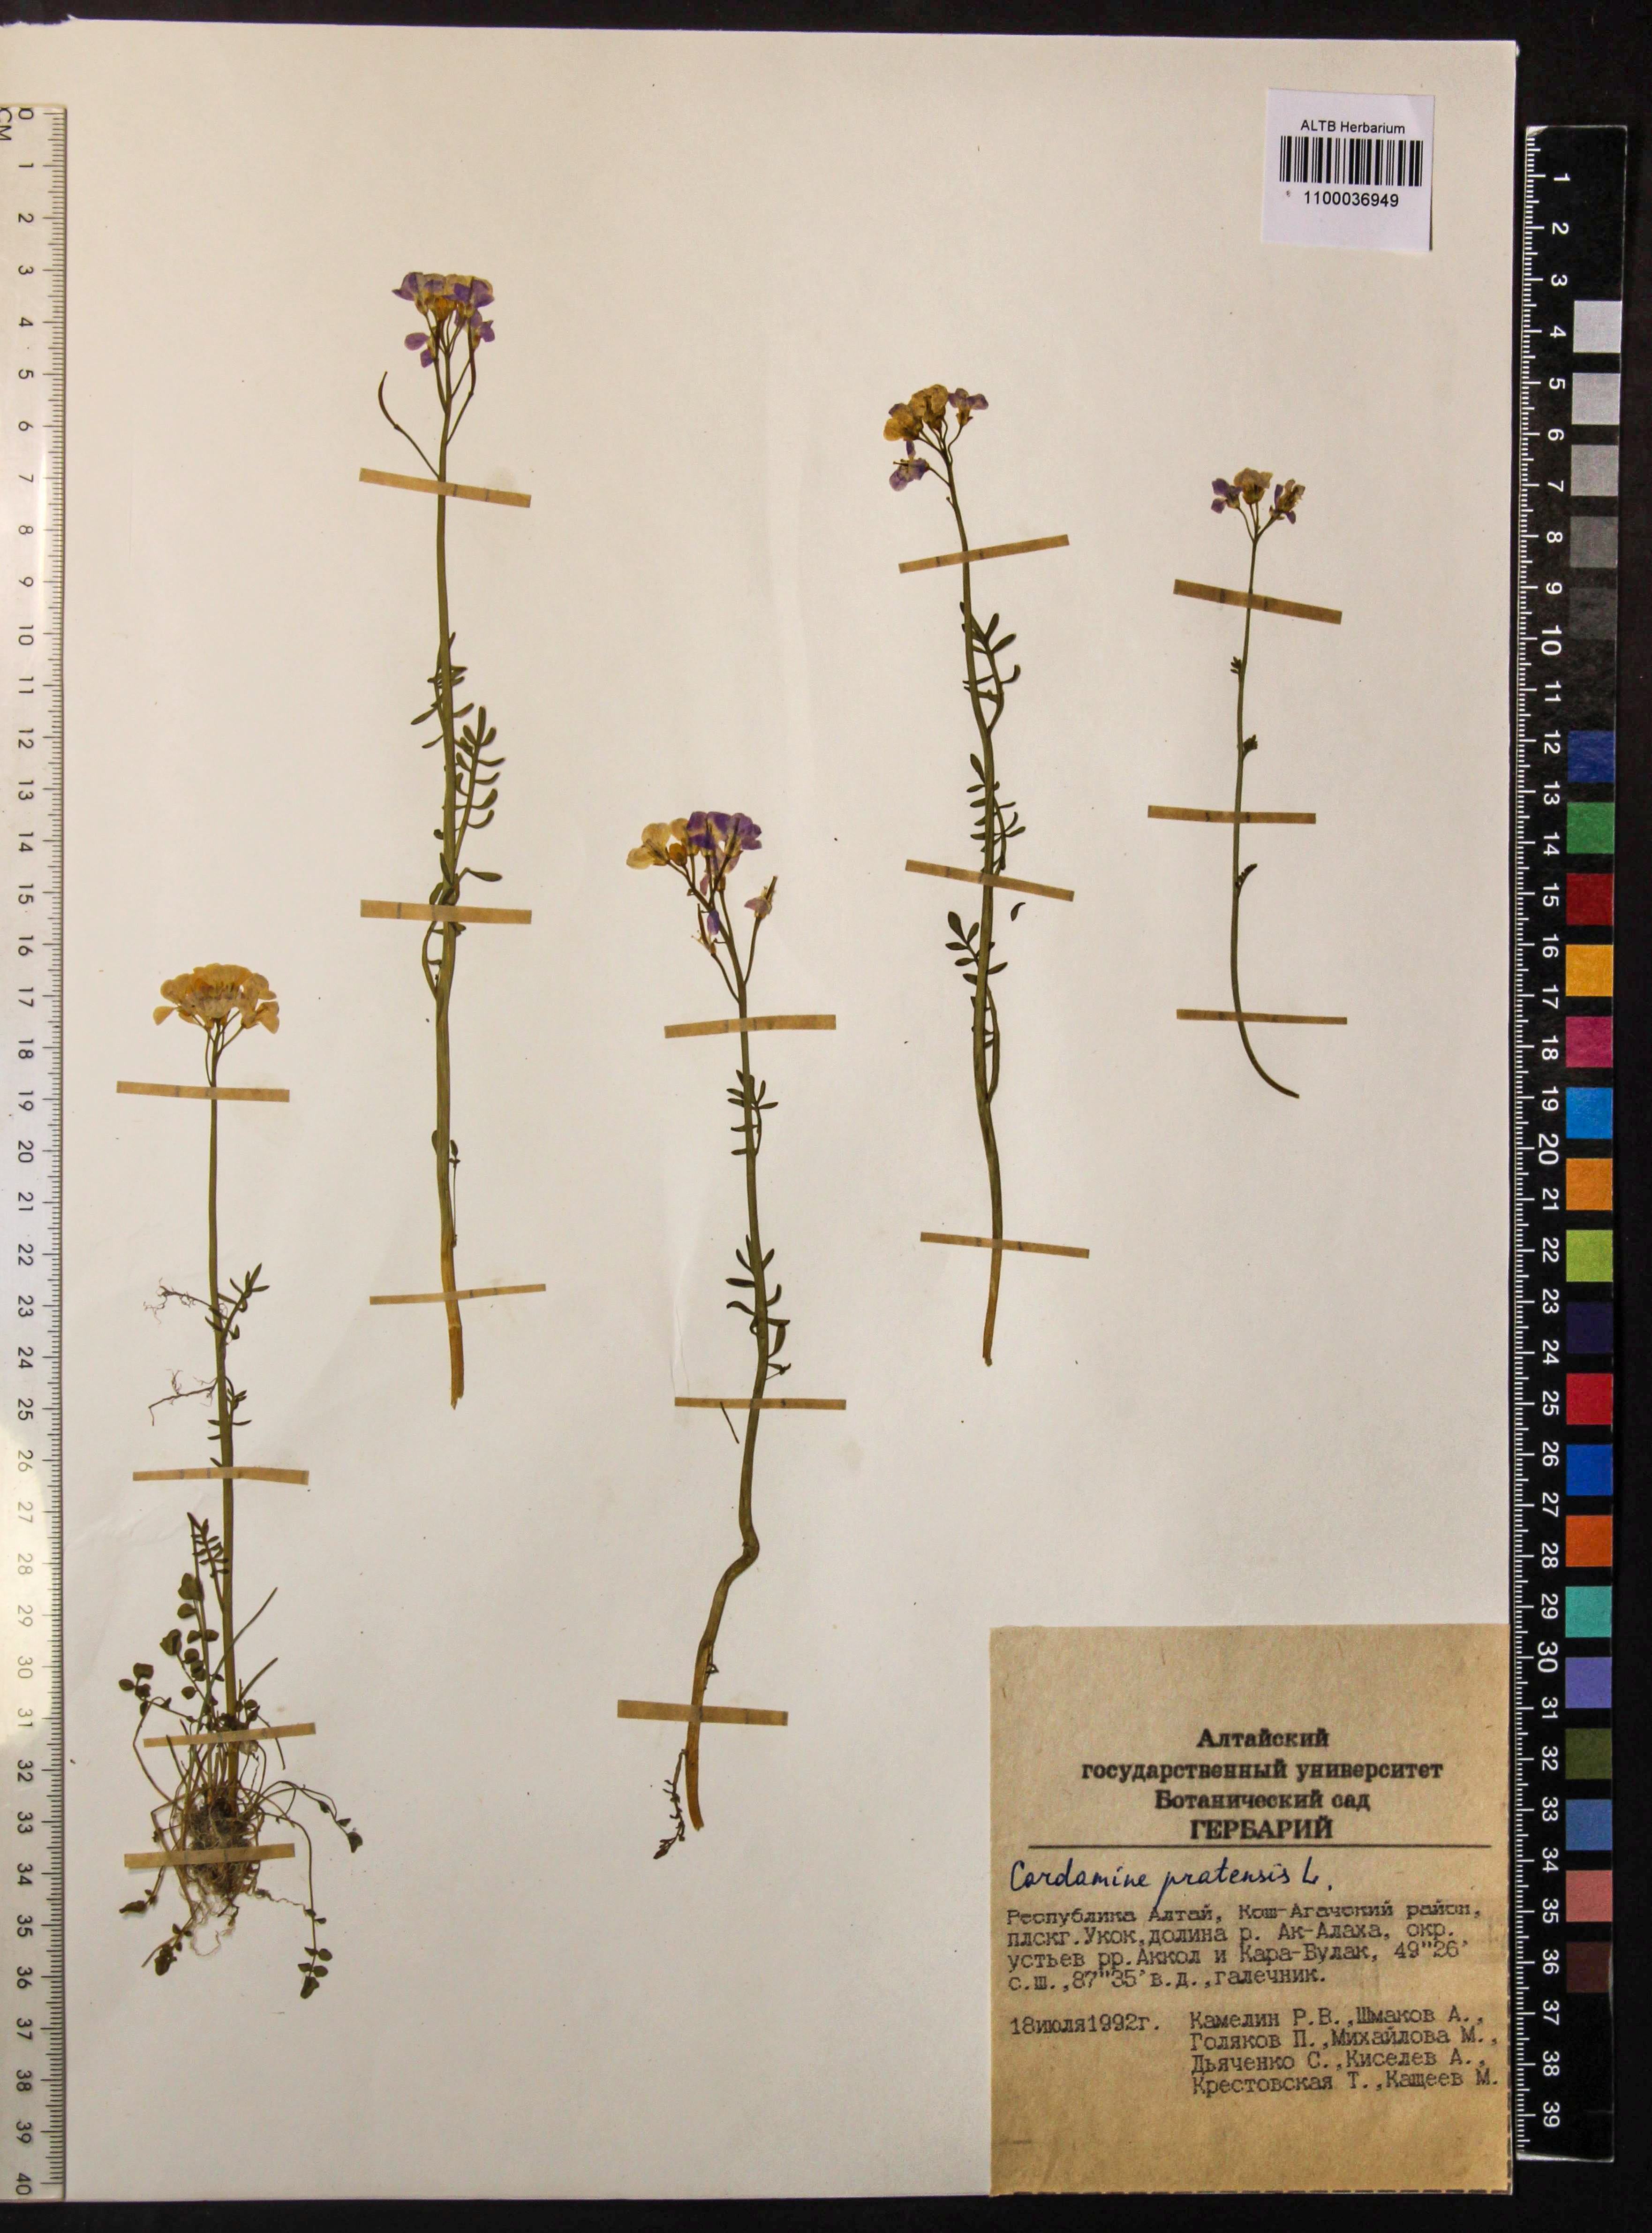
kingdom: Plantae
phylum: Tracheophyta
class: Magnoliopsida
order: Brassicales
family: Brassicaceae
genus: Cardamine
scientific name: Cardamine pratensis
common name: Cuckoo flower
